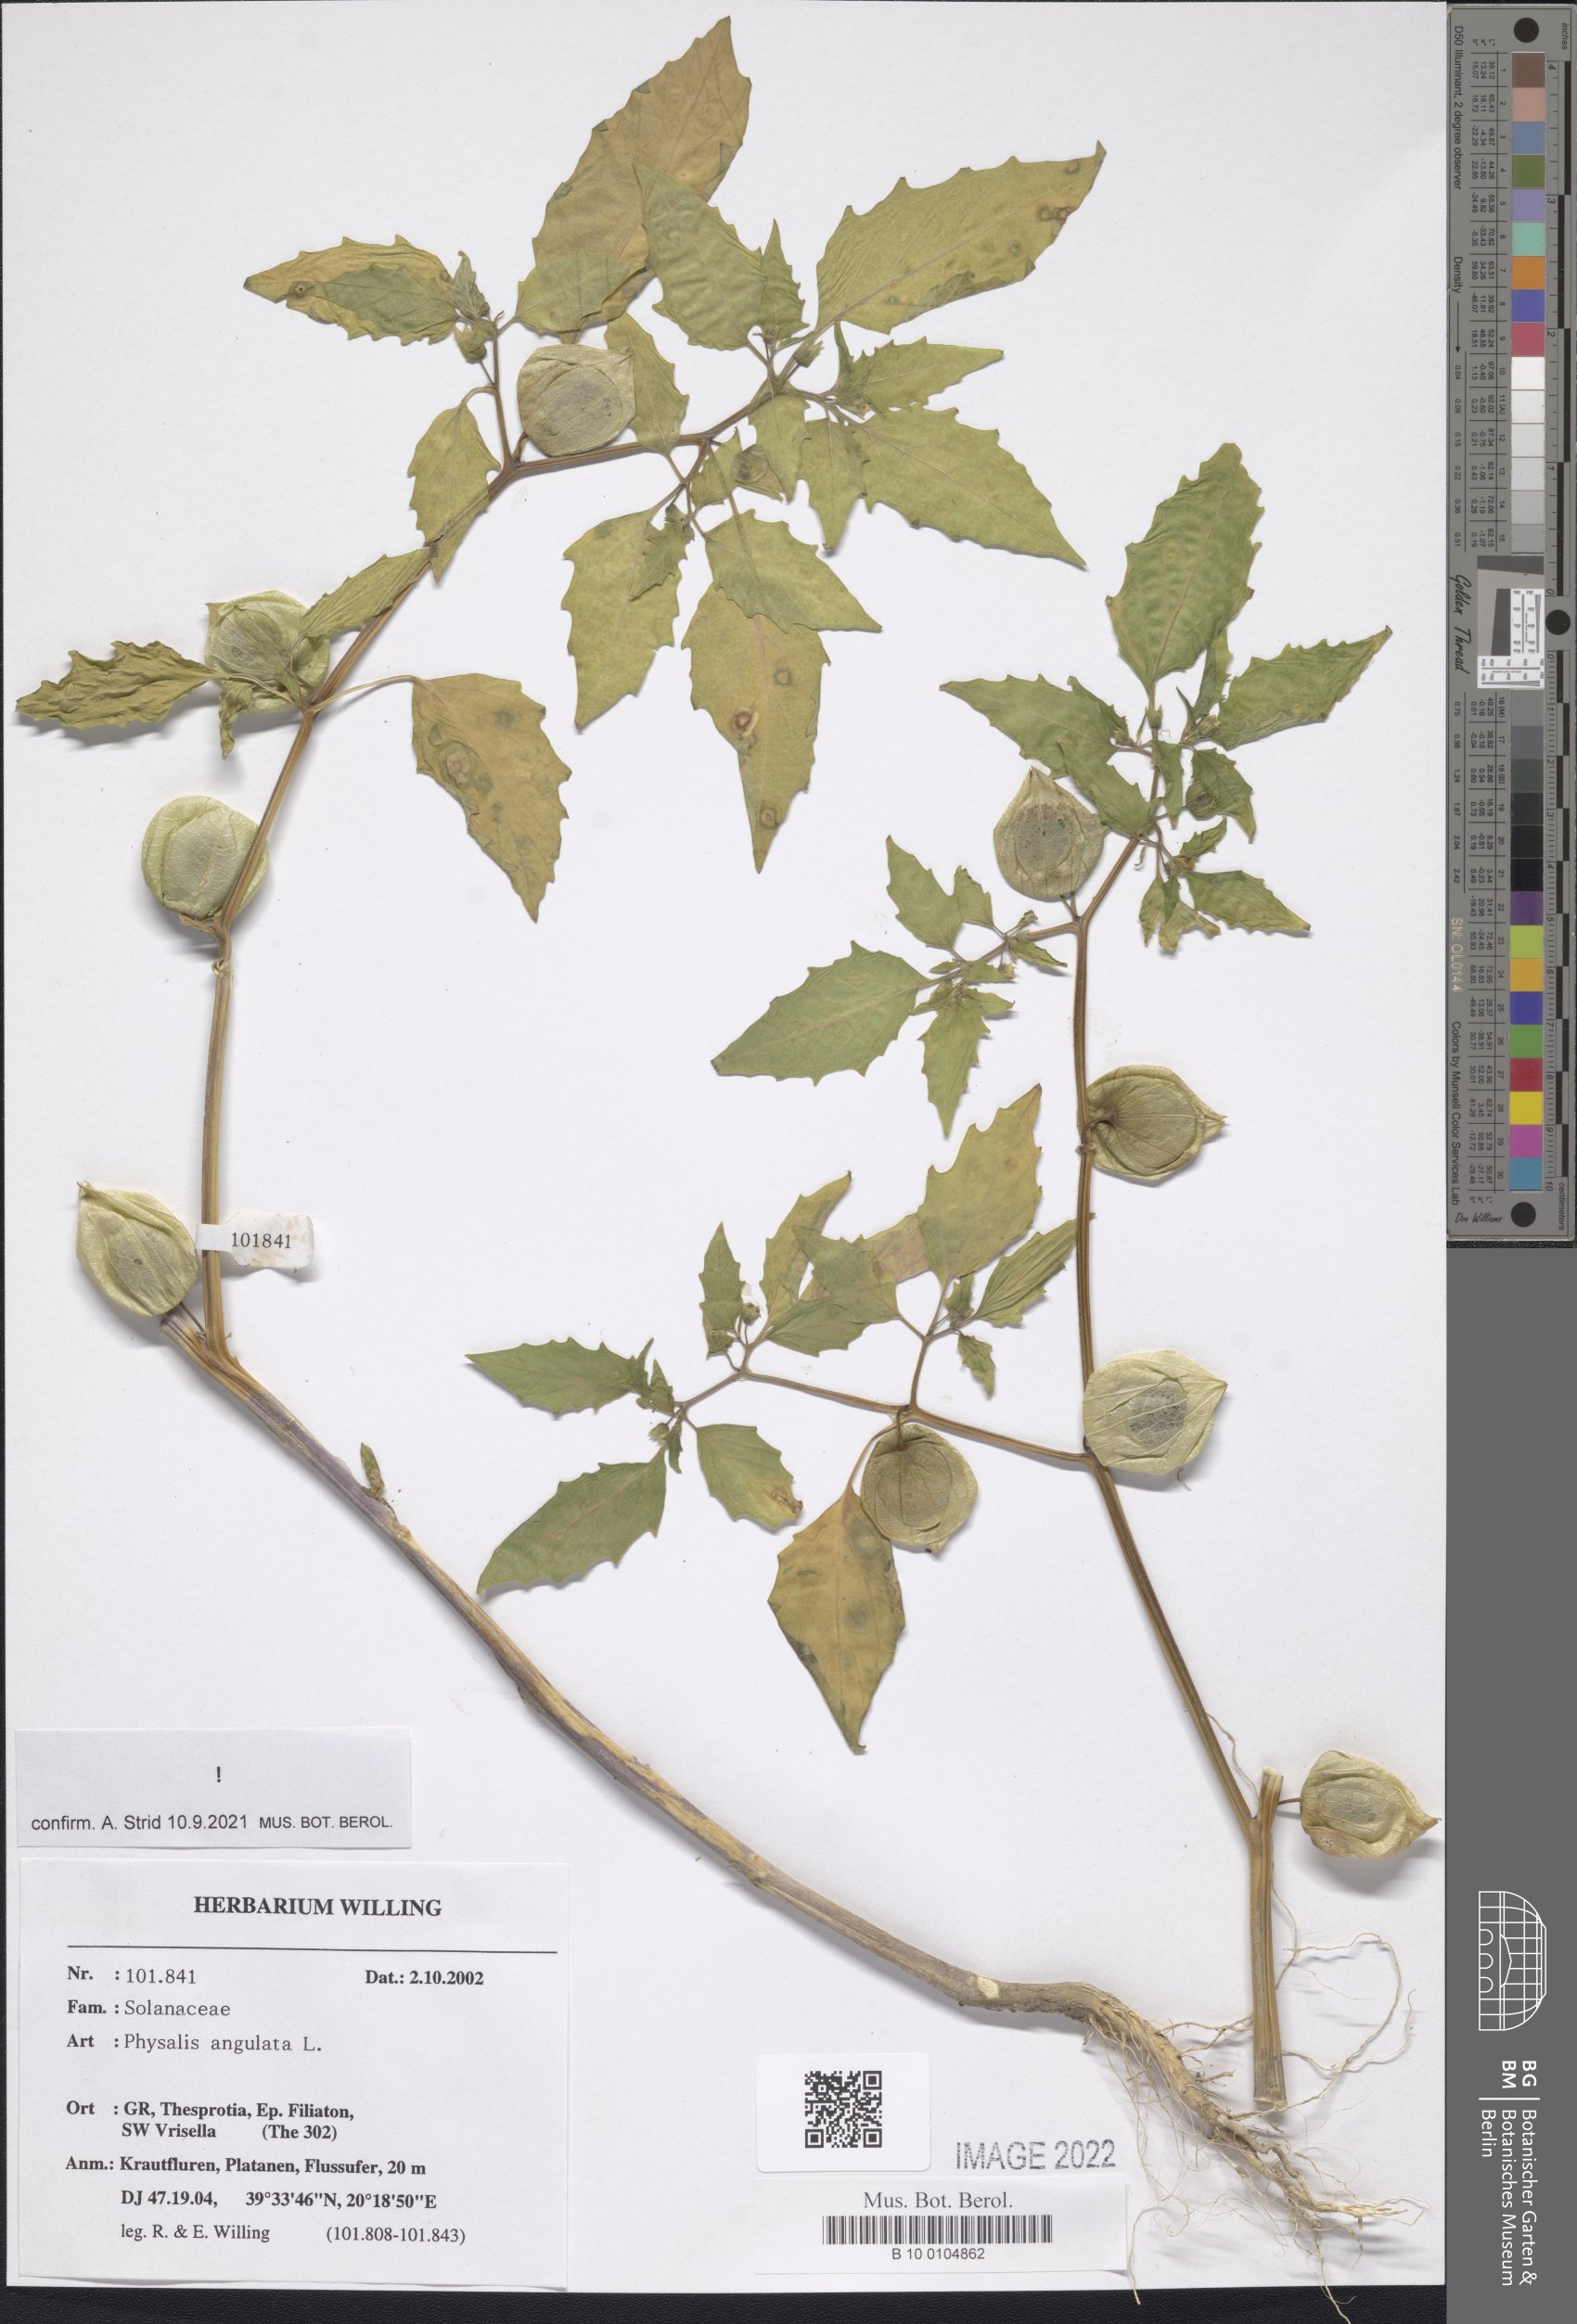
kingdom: Plantae
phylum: Tracheophyta
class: Magnoliopsida
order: Solanales
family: Solanaceae
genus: Physalis
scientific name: Physalis angulata
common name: Angular winter-cherry
